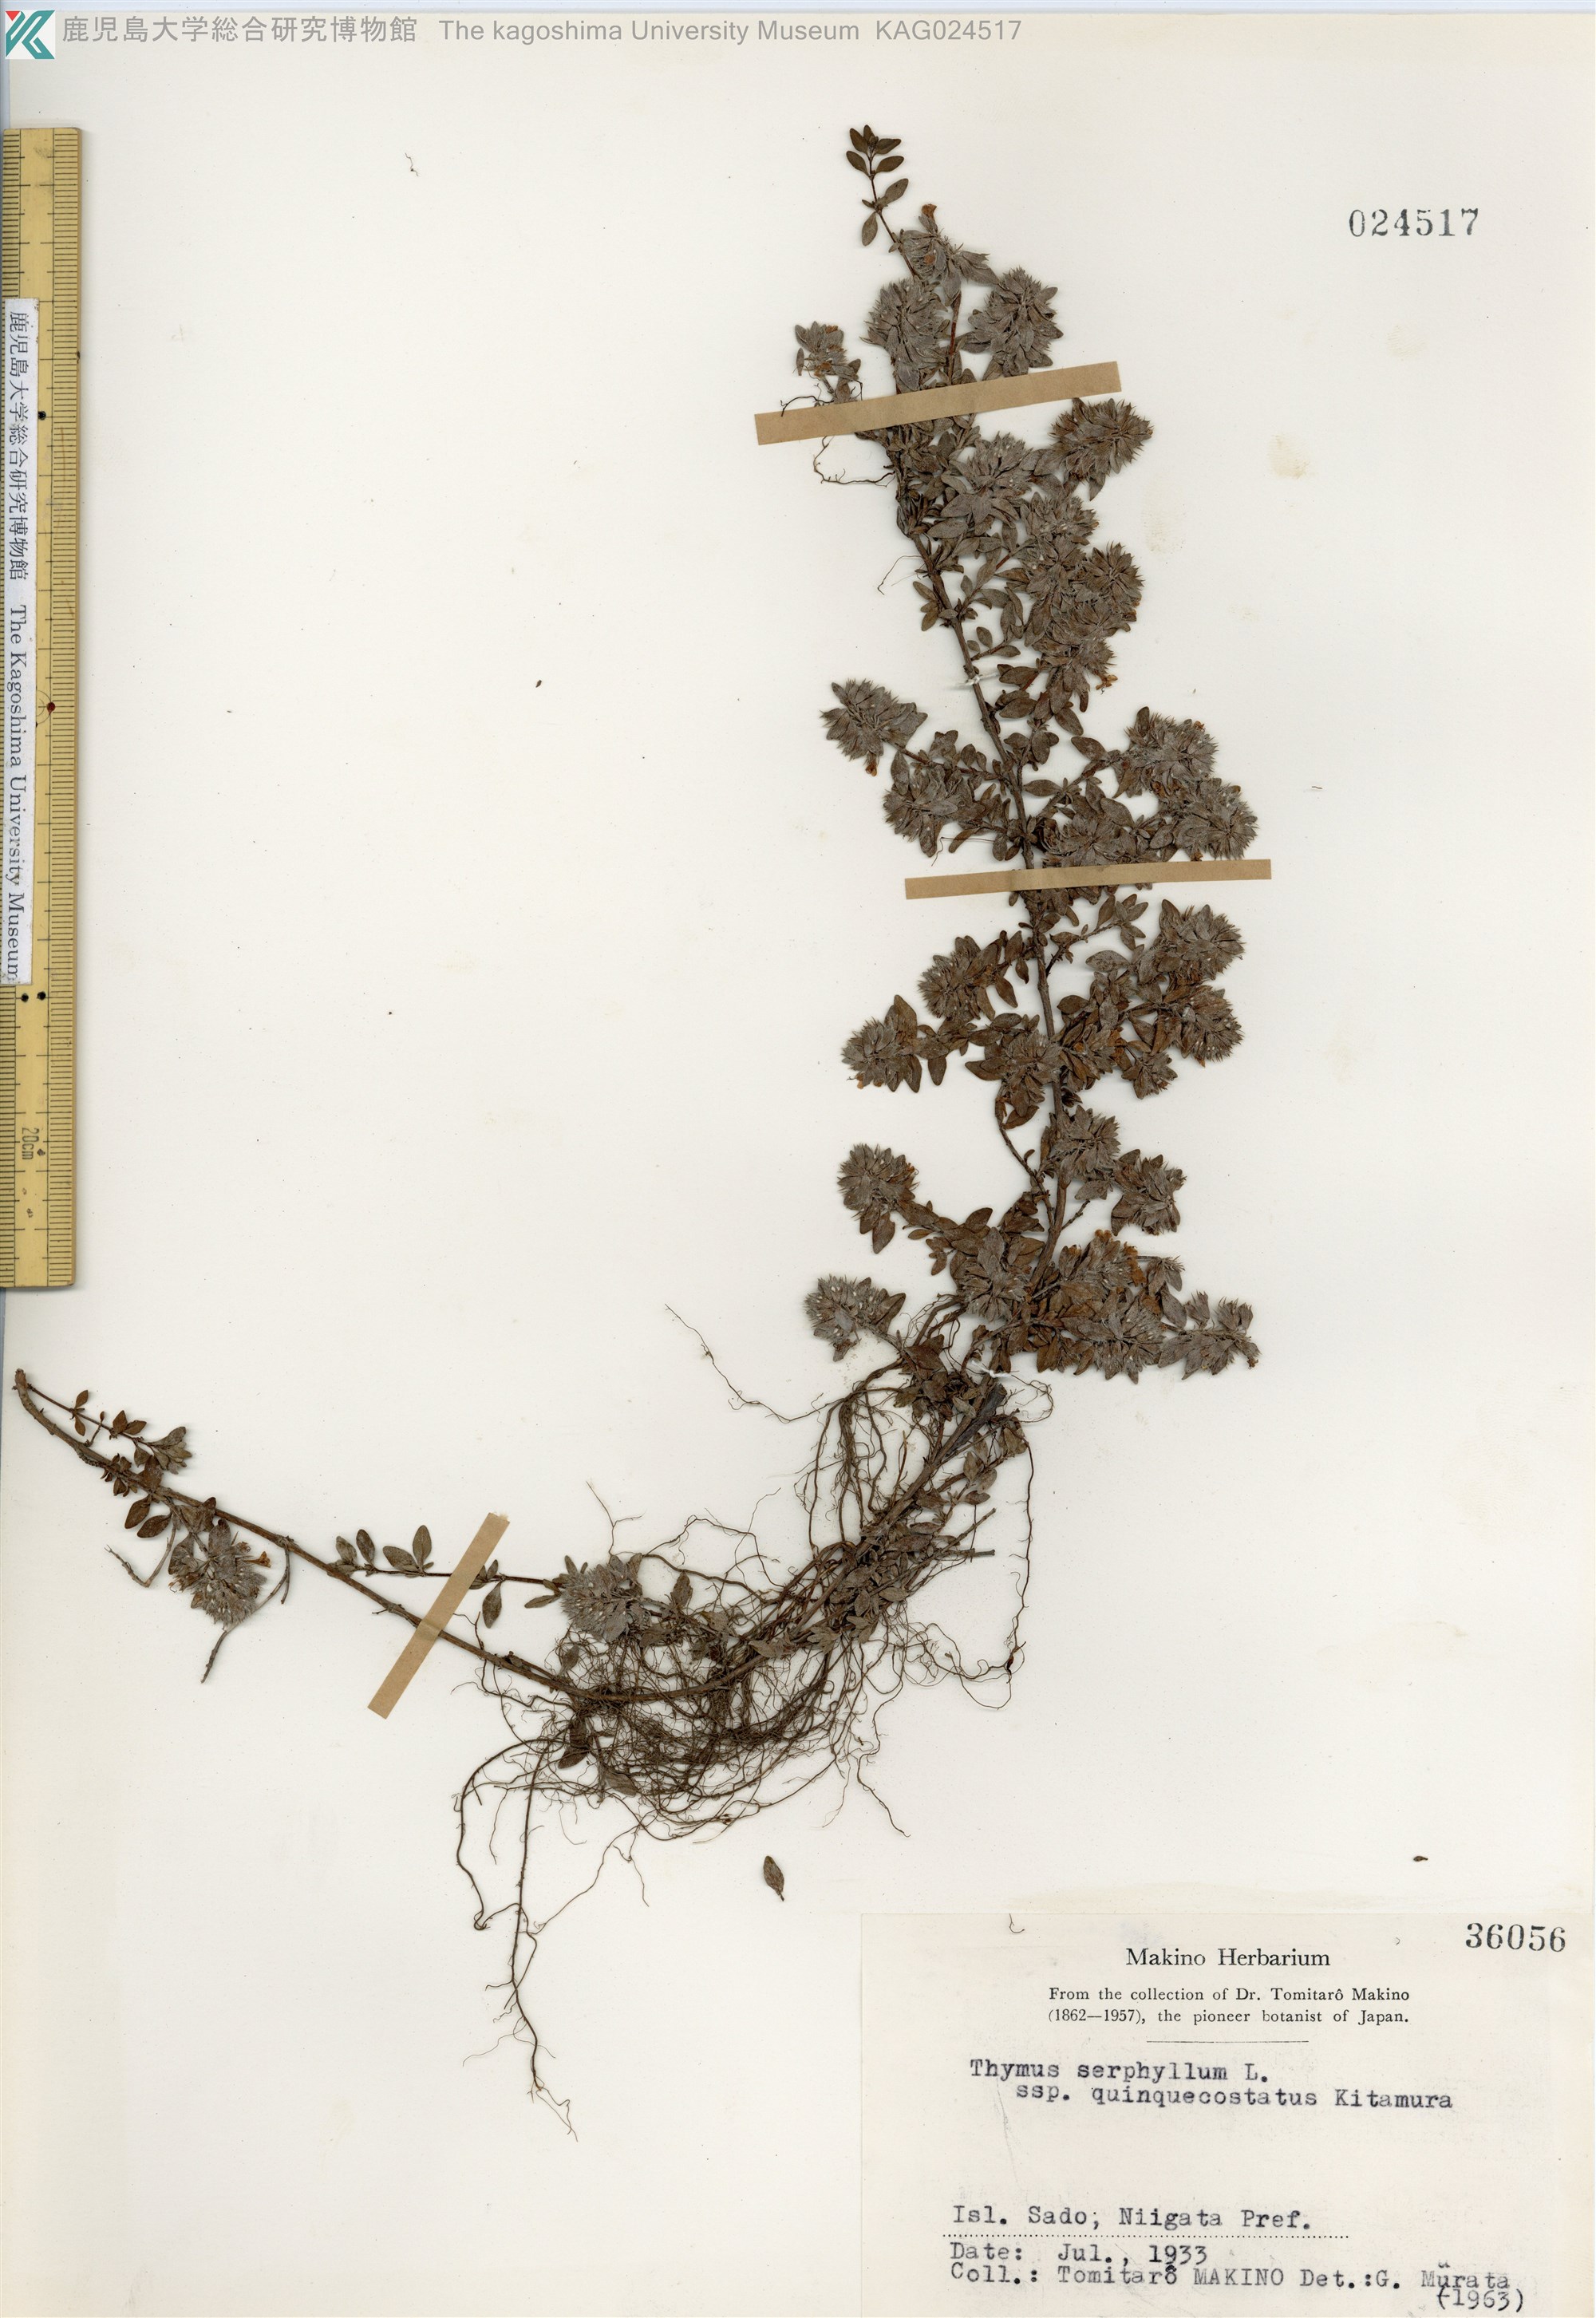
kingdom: Plantae
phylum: Tracheophyta
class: Magnoliopsida
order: Lamiales
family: Lamiaceae
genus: Thymus
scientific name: Thymus quinquecostatus
